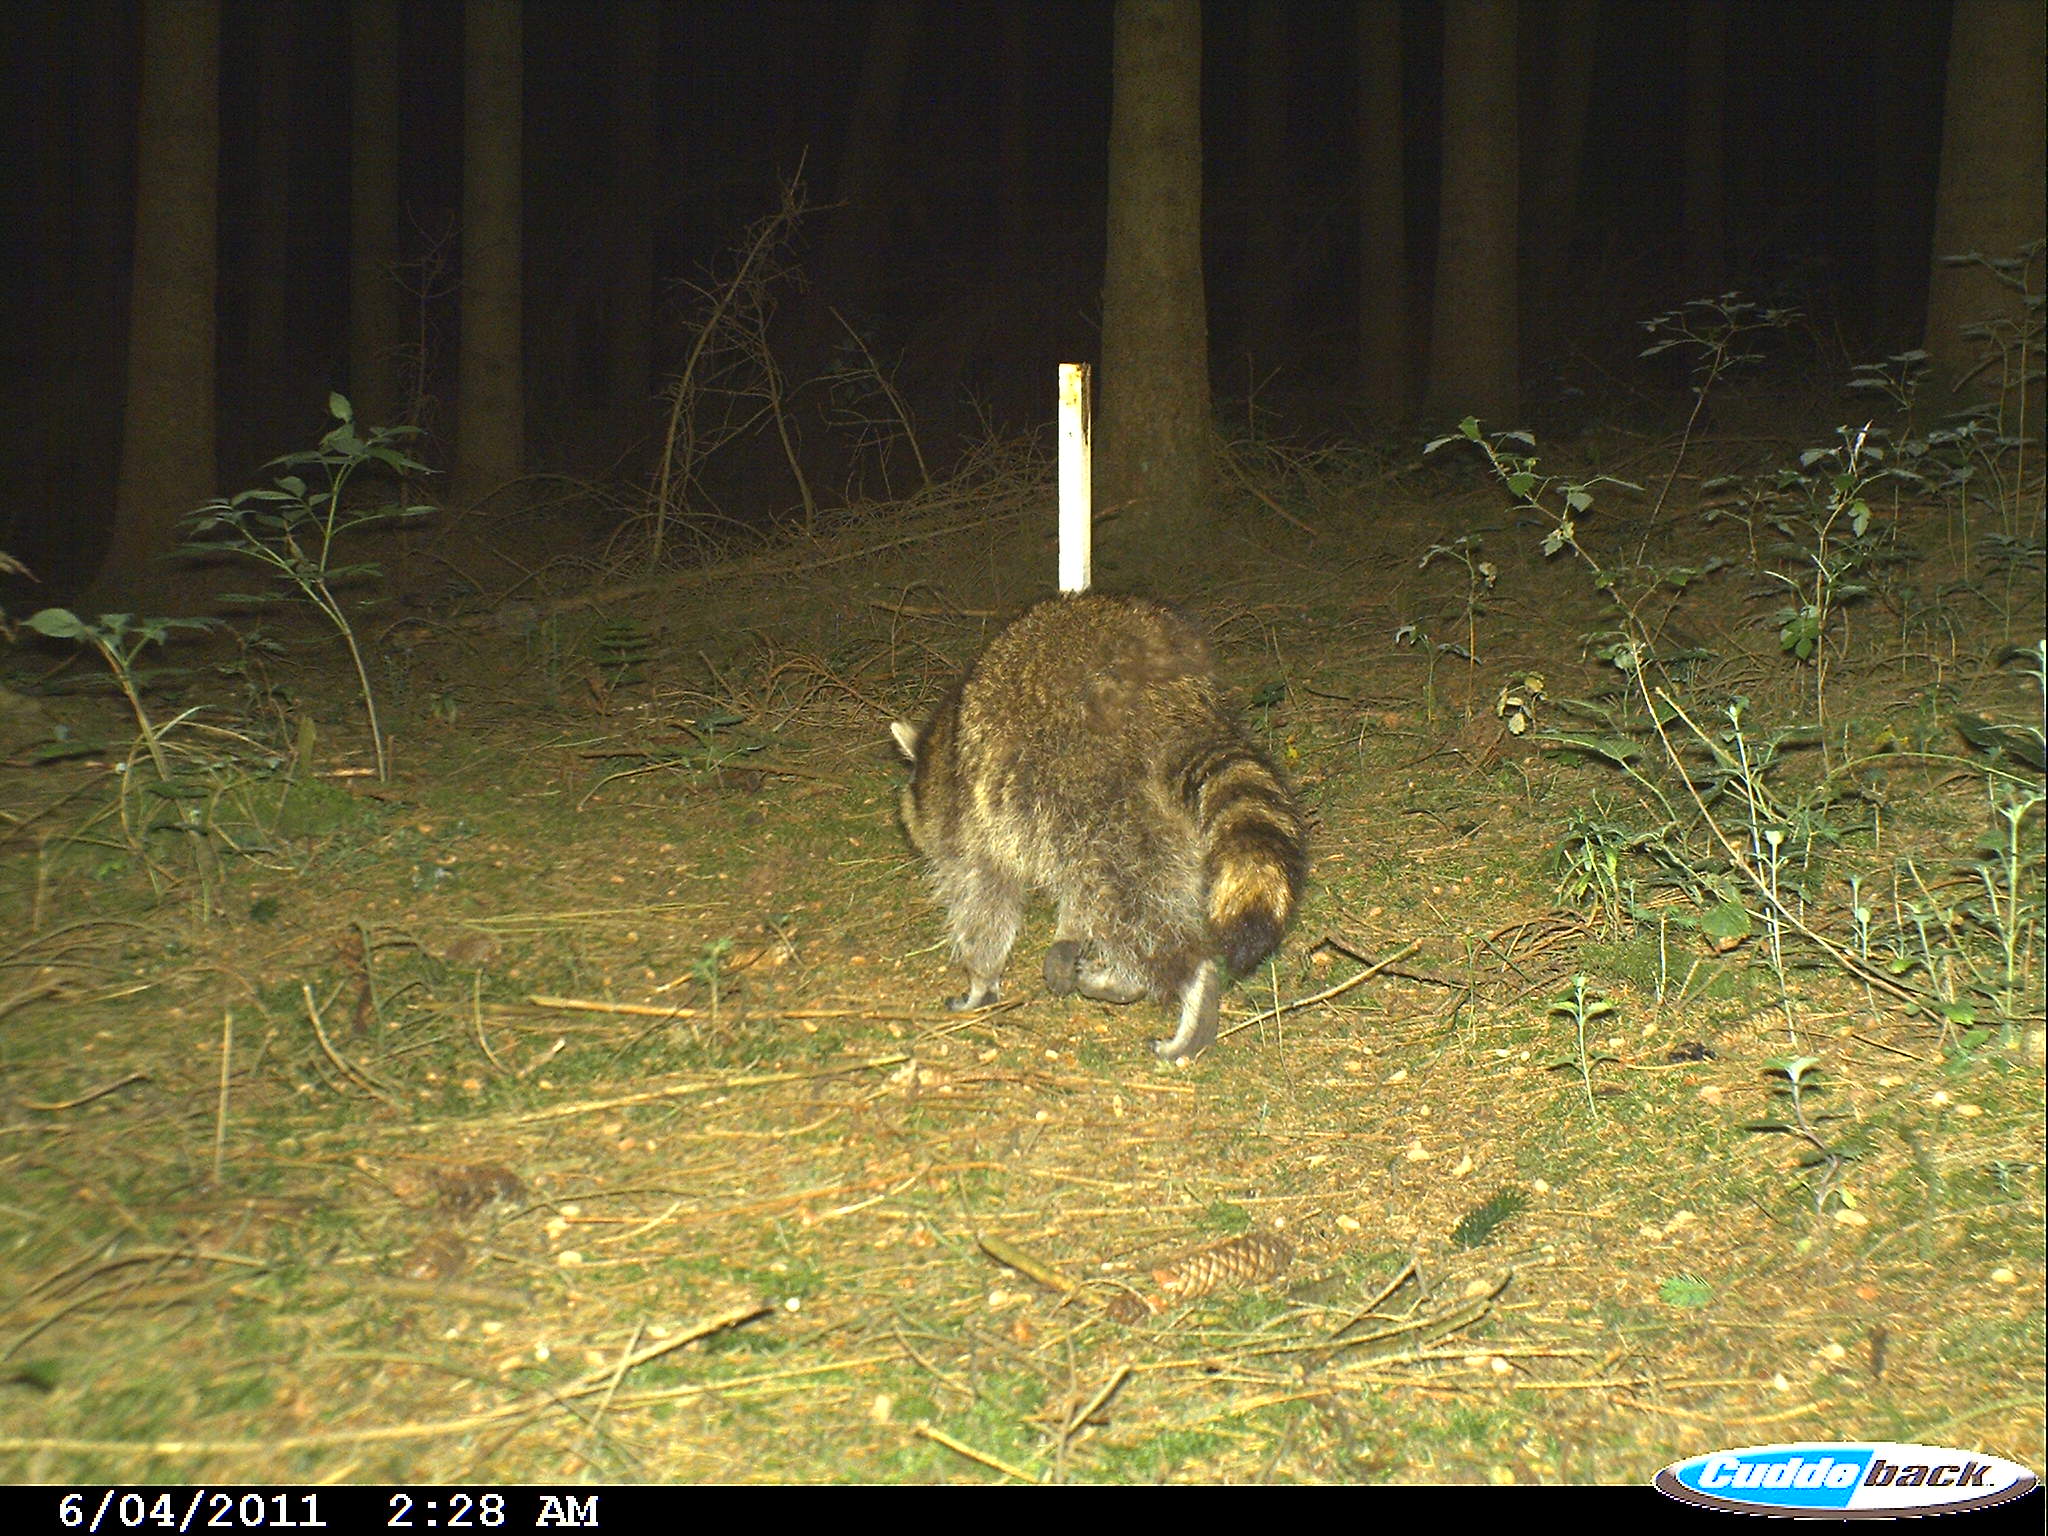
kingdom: Animalia
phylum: Chordata
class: Mammalia
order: Carnivora
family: Procyonidae
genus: Procyon
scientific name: Procyon lotor
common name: Raccoon
